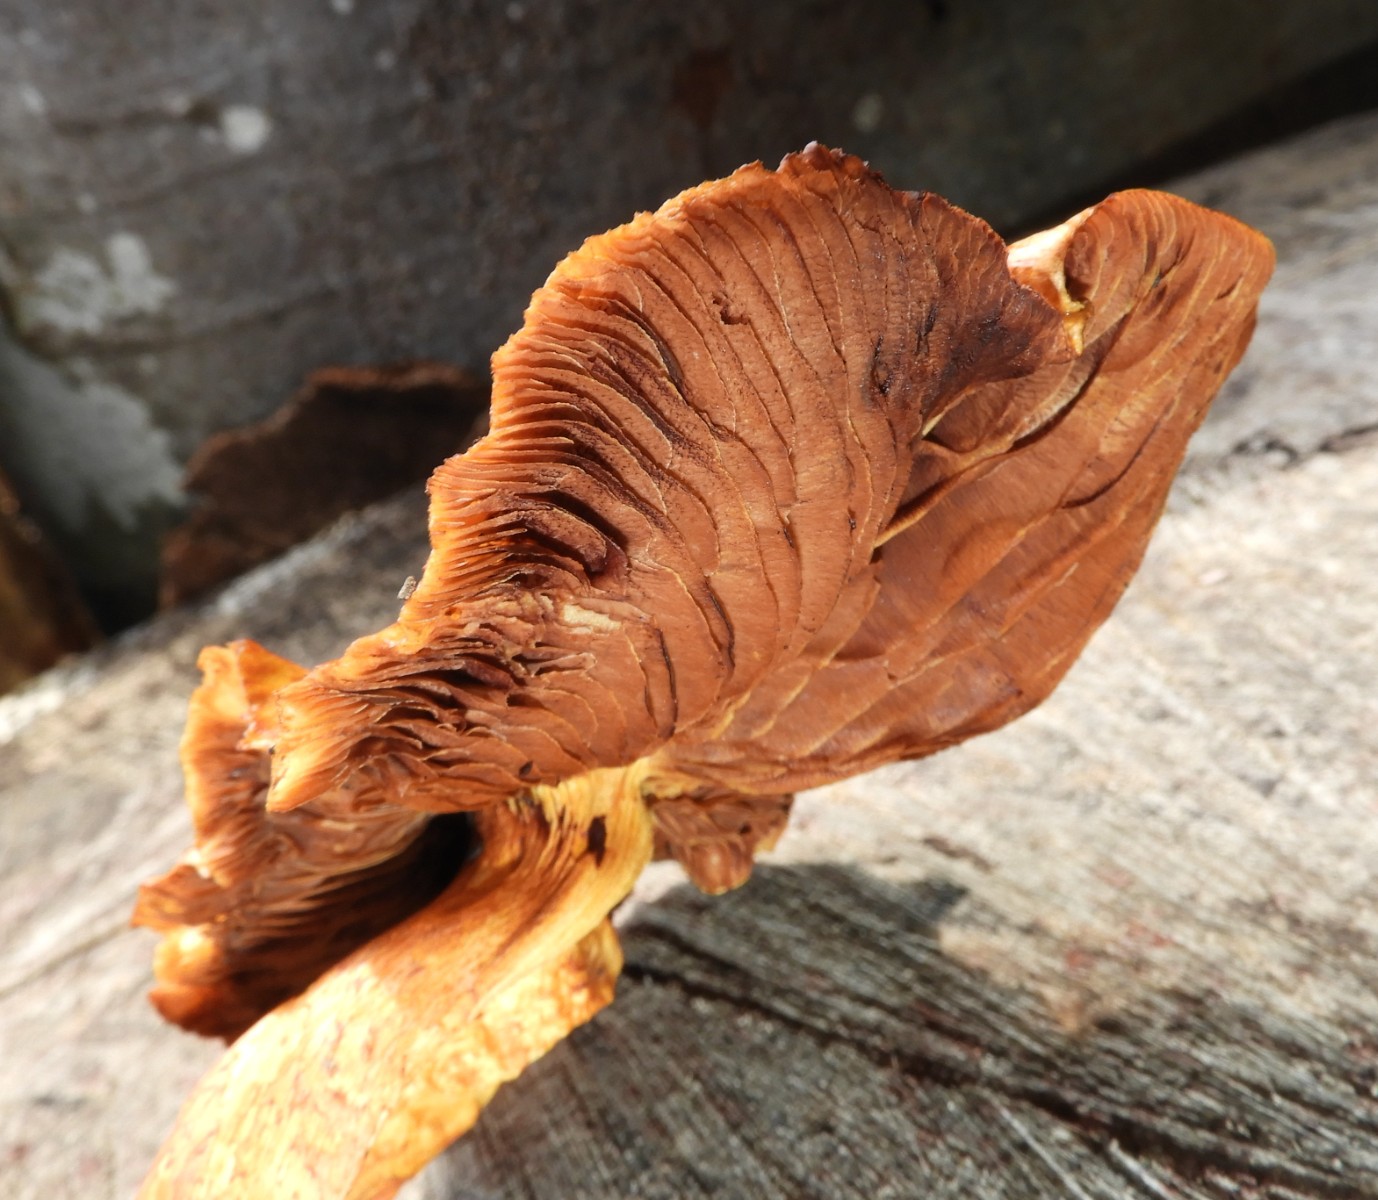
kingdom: Fungi
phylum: Basidiomycota
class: Agaricomycetes
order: Agaricales
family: Strophariaceae
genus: Pholiota
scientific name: Pholiota adiposa
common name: højtsiddende skælhat
